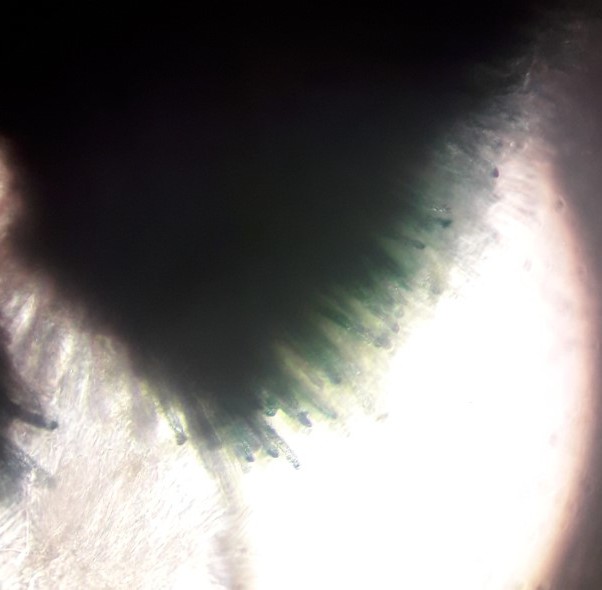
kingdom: Fungi
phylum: Ascomycota
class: Leotiomycetes
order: Helotiales
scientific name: Helotiales
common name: stilkskiveordenen
